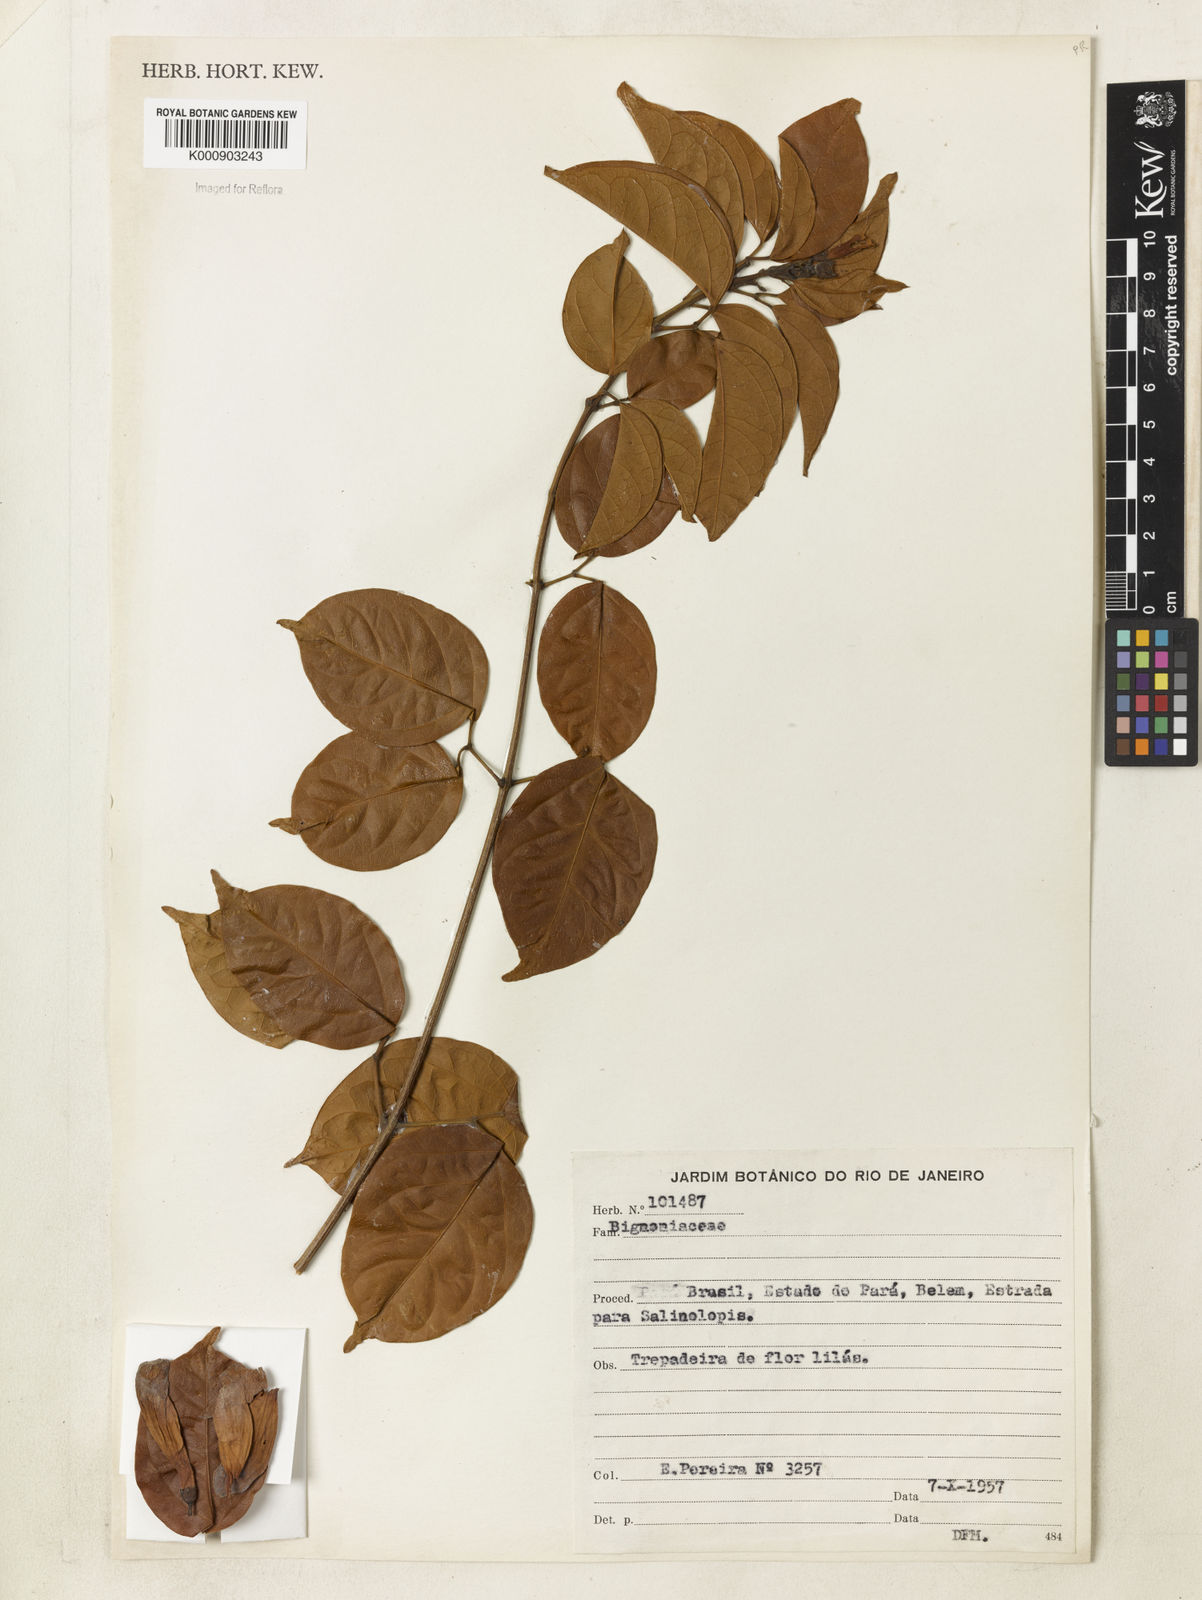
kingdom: Plantae
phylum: Tracheophyta
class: Magnoliopsida
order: Lamiales
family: Bignoniaceae
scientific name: Bignoniaceae
